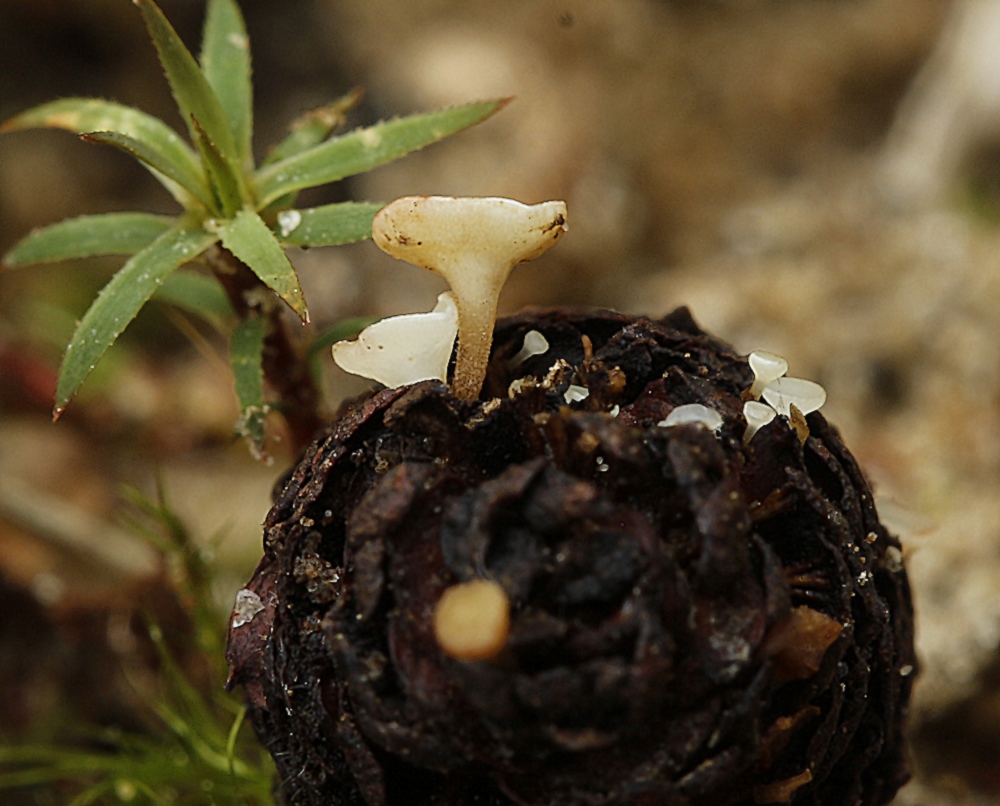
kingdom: Fungi
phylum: Ascomycota
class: Leotiomycetes
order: Helotiales
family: Helotiaceae
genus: Hymenoscyphus
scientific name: Hymenoscyphus
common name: stilkskive
